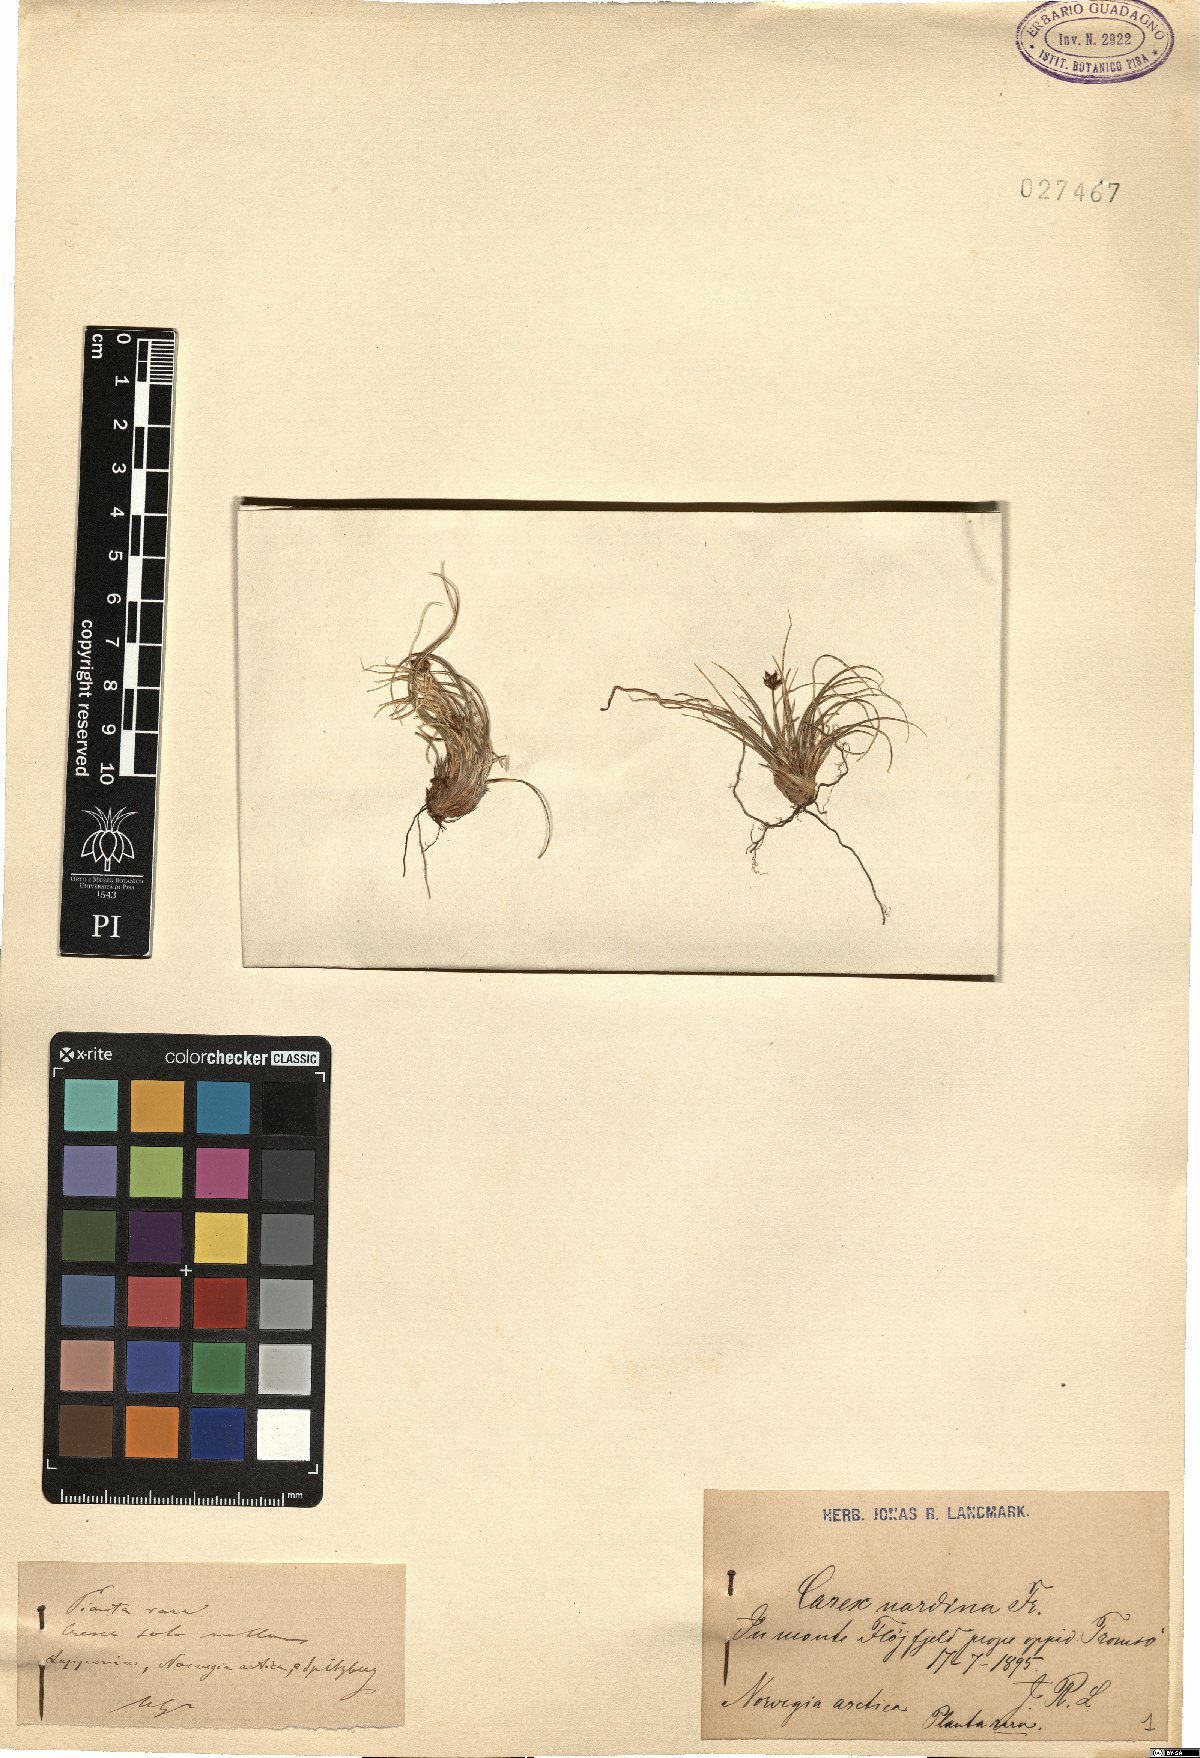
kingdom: Plantae
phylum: Tracheophyta
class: Liliopsida
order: Poales
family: Cyperaceae
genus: Carex
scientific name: Carex nardina
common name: Nard sedge
